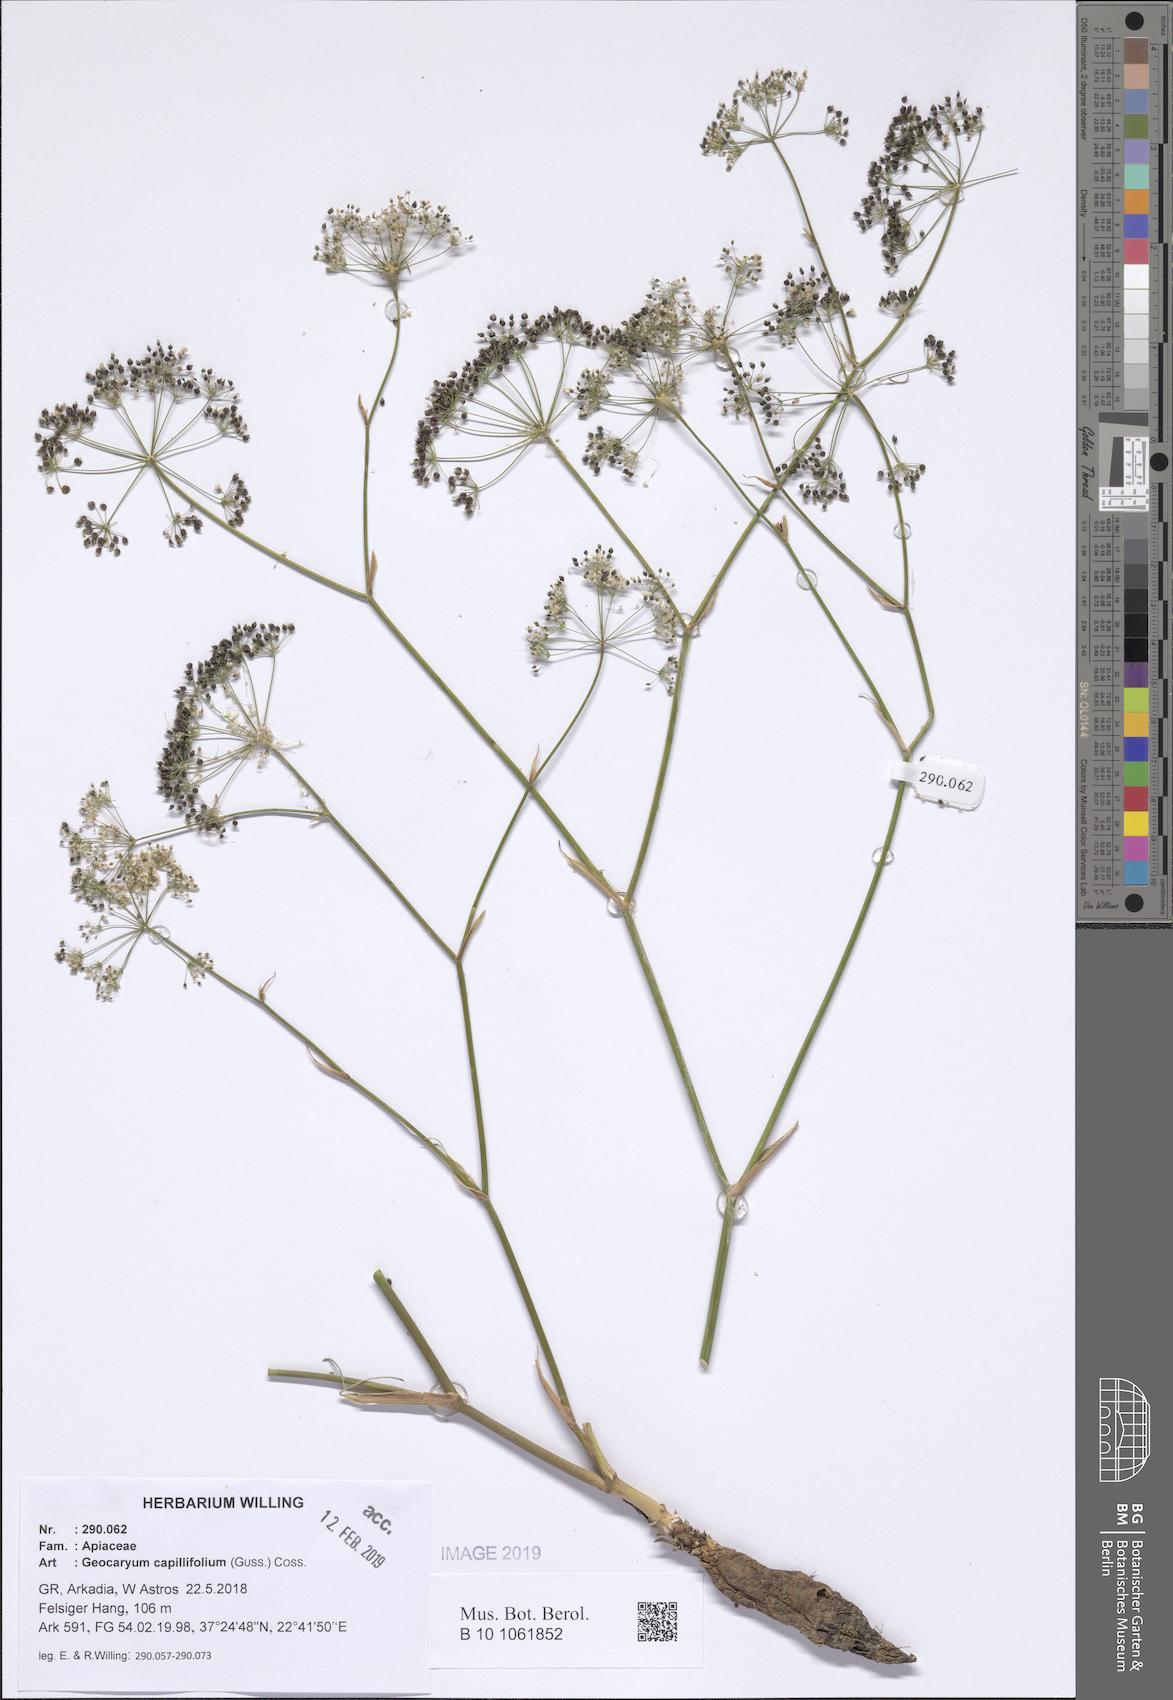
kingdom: Plantae
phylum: Tracheophyta
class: Magnoliopsida
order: Apiales
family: Apiaceae
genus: Geocaryum
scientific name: Geocaryum capillifolium
